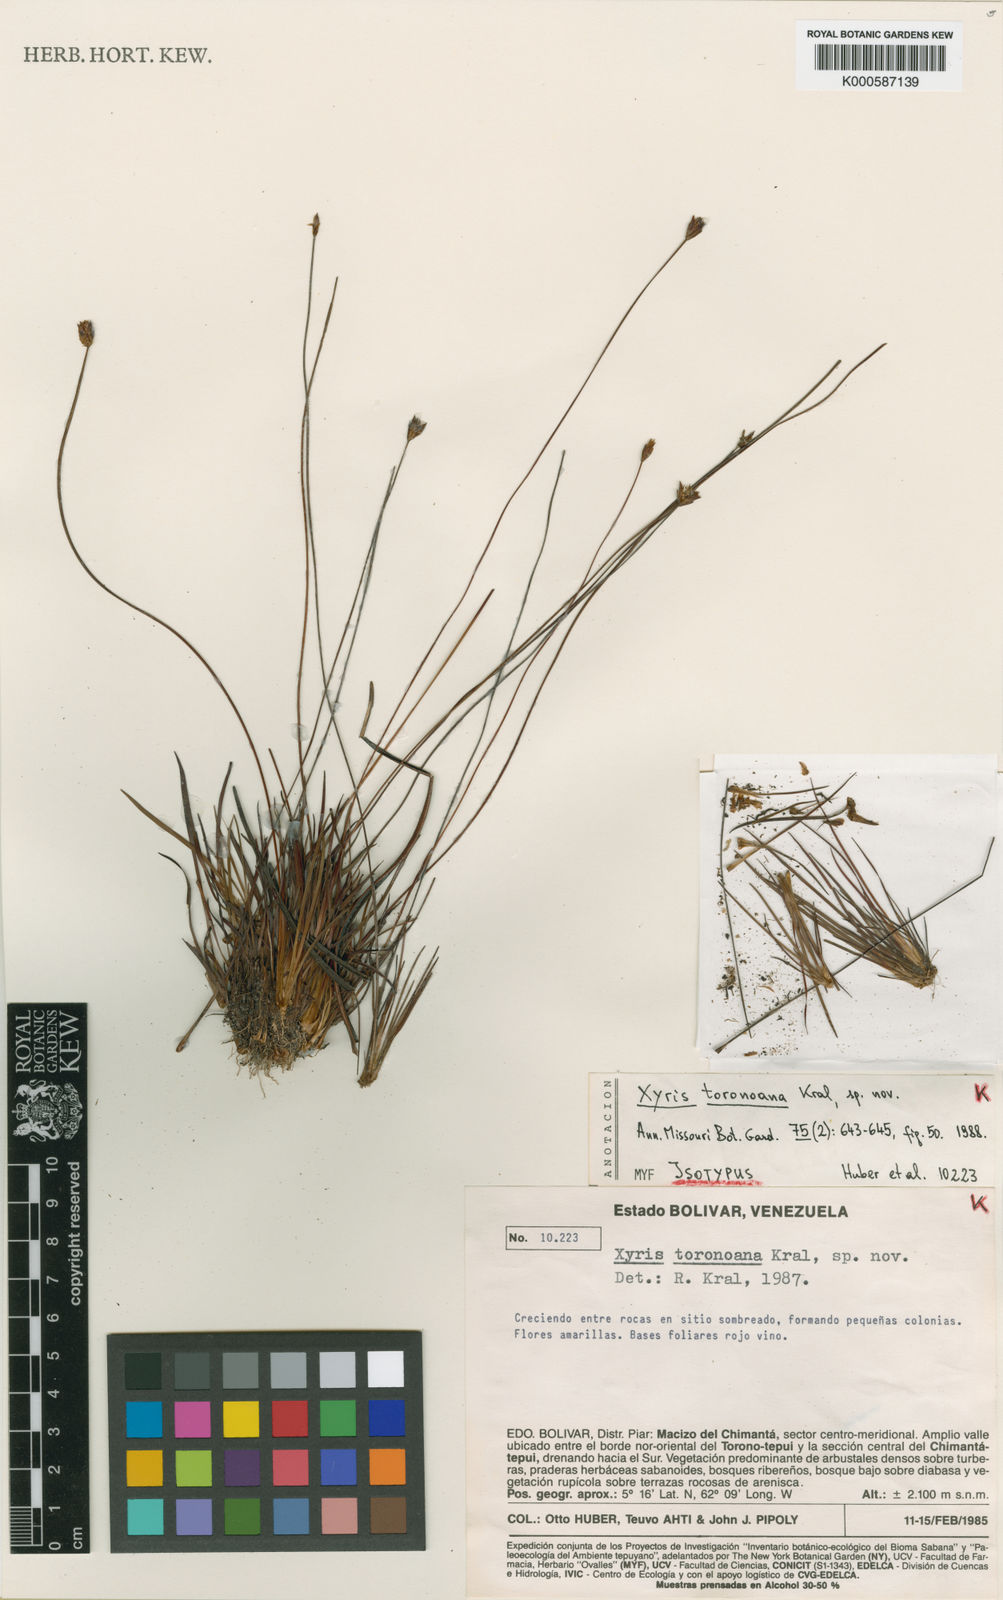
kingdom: Plantae
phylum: Tracheophyta
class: Liliopsida
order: Poales
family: Xyridaceae
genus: Xyris
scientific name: Xyris toronoana
